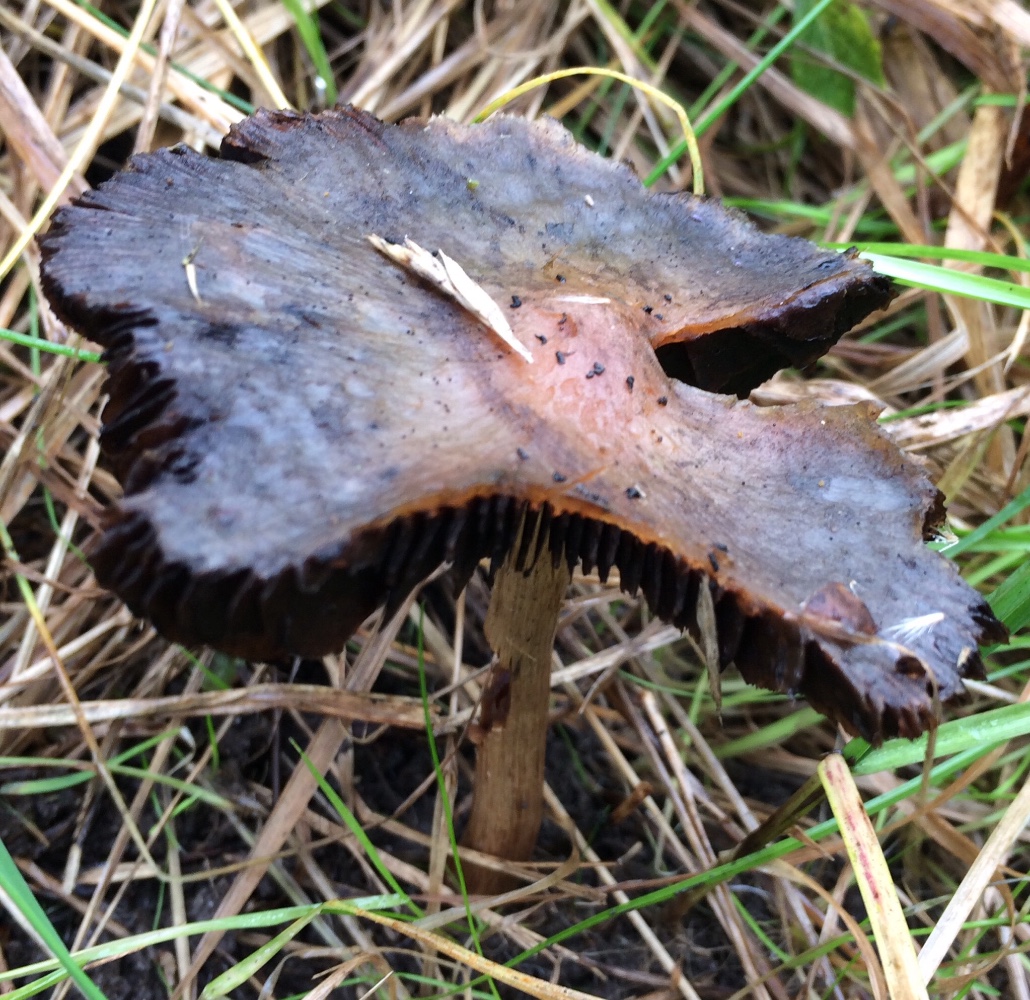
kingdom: Fungi
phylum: Basidiomycota
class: Agaricomycetes
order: Agaricales
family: Psathyrellaceae
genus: Lacrymaria
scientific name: Lacrymaria
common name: mørkhat
